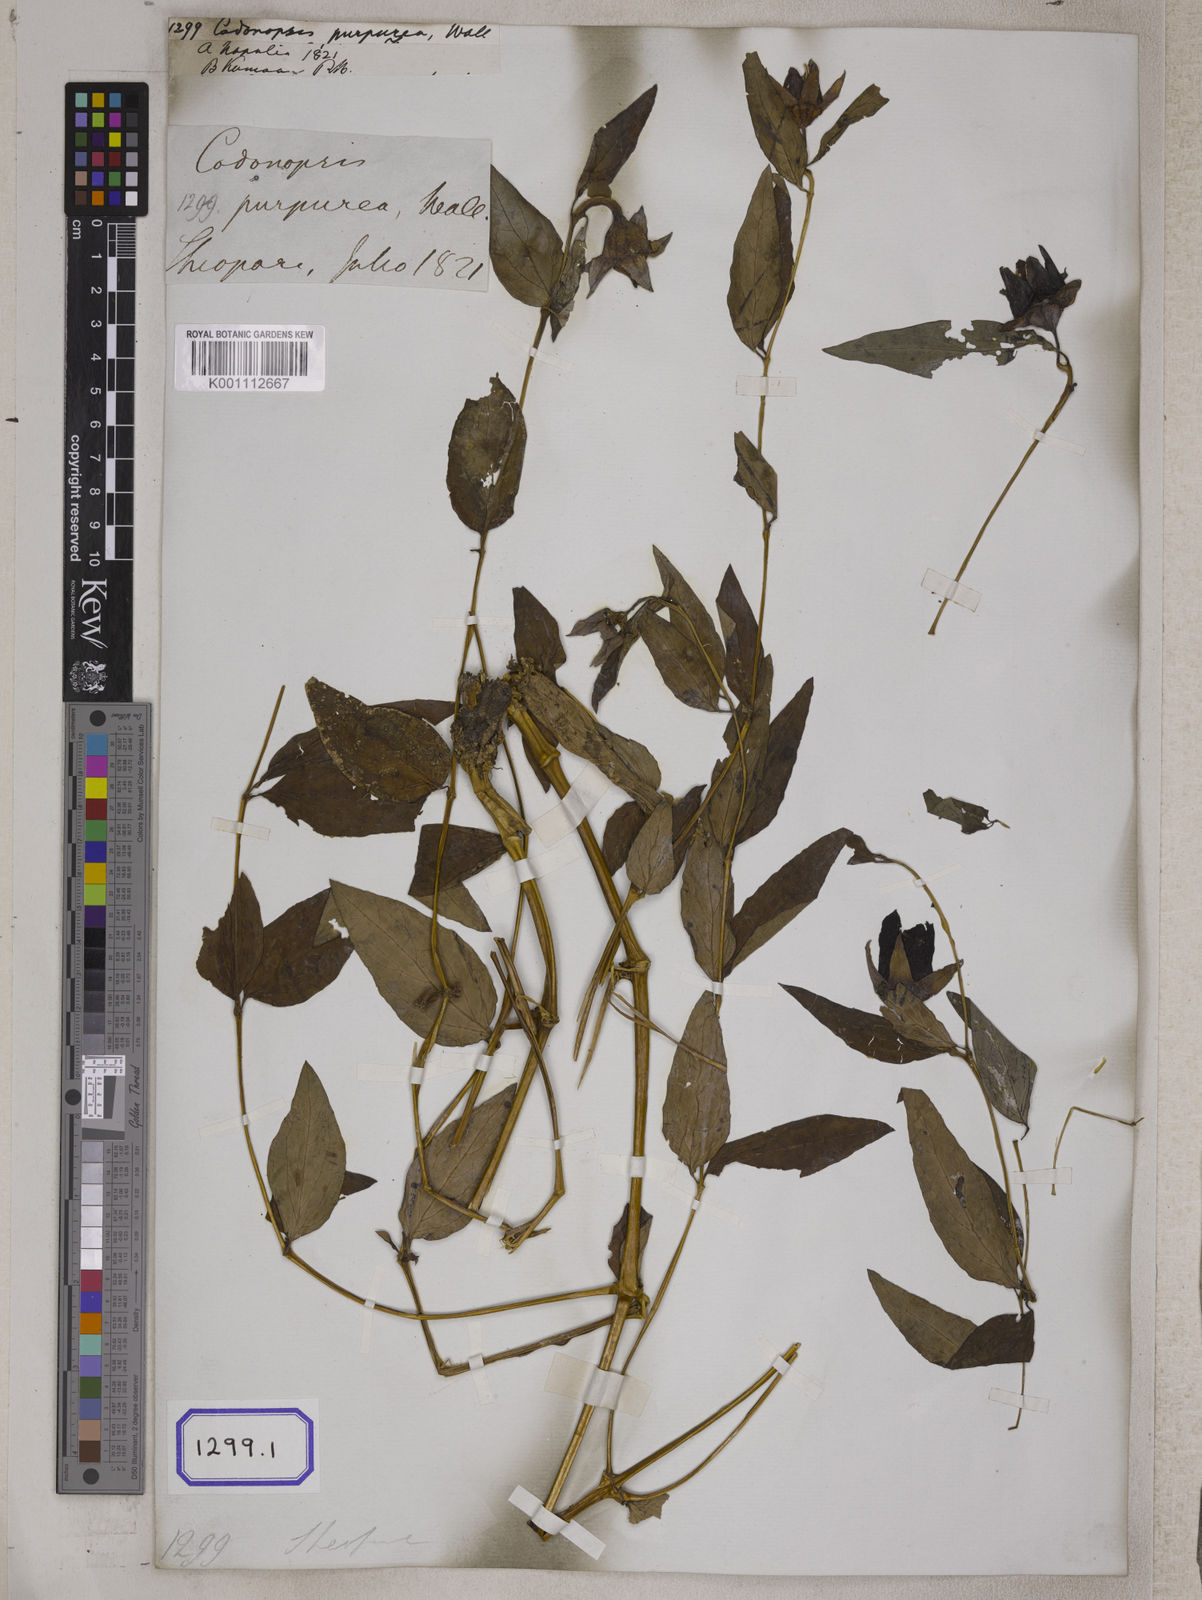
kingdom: Plantae
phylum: Tracheophyta
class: Magnoliopsida
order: Asterales
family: Campanulaceae
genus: Pankycodon
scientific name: Pankycodon purpureus
